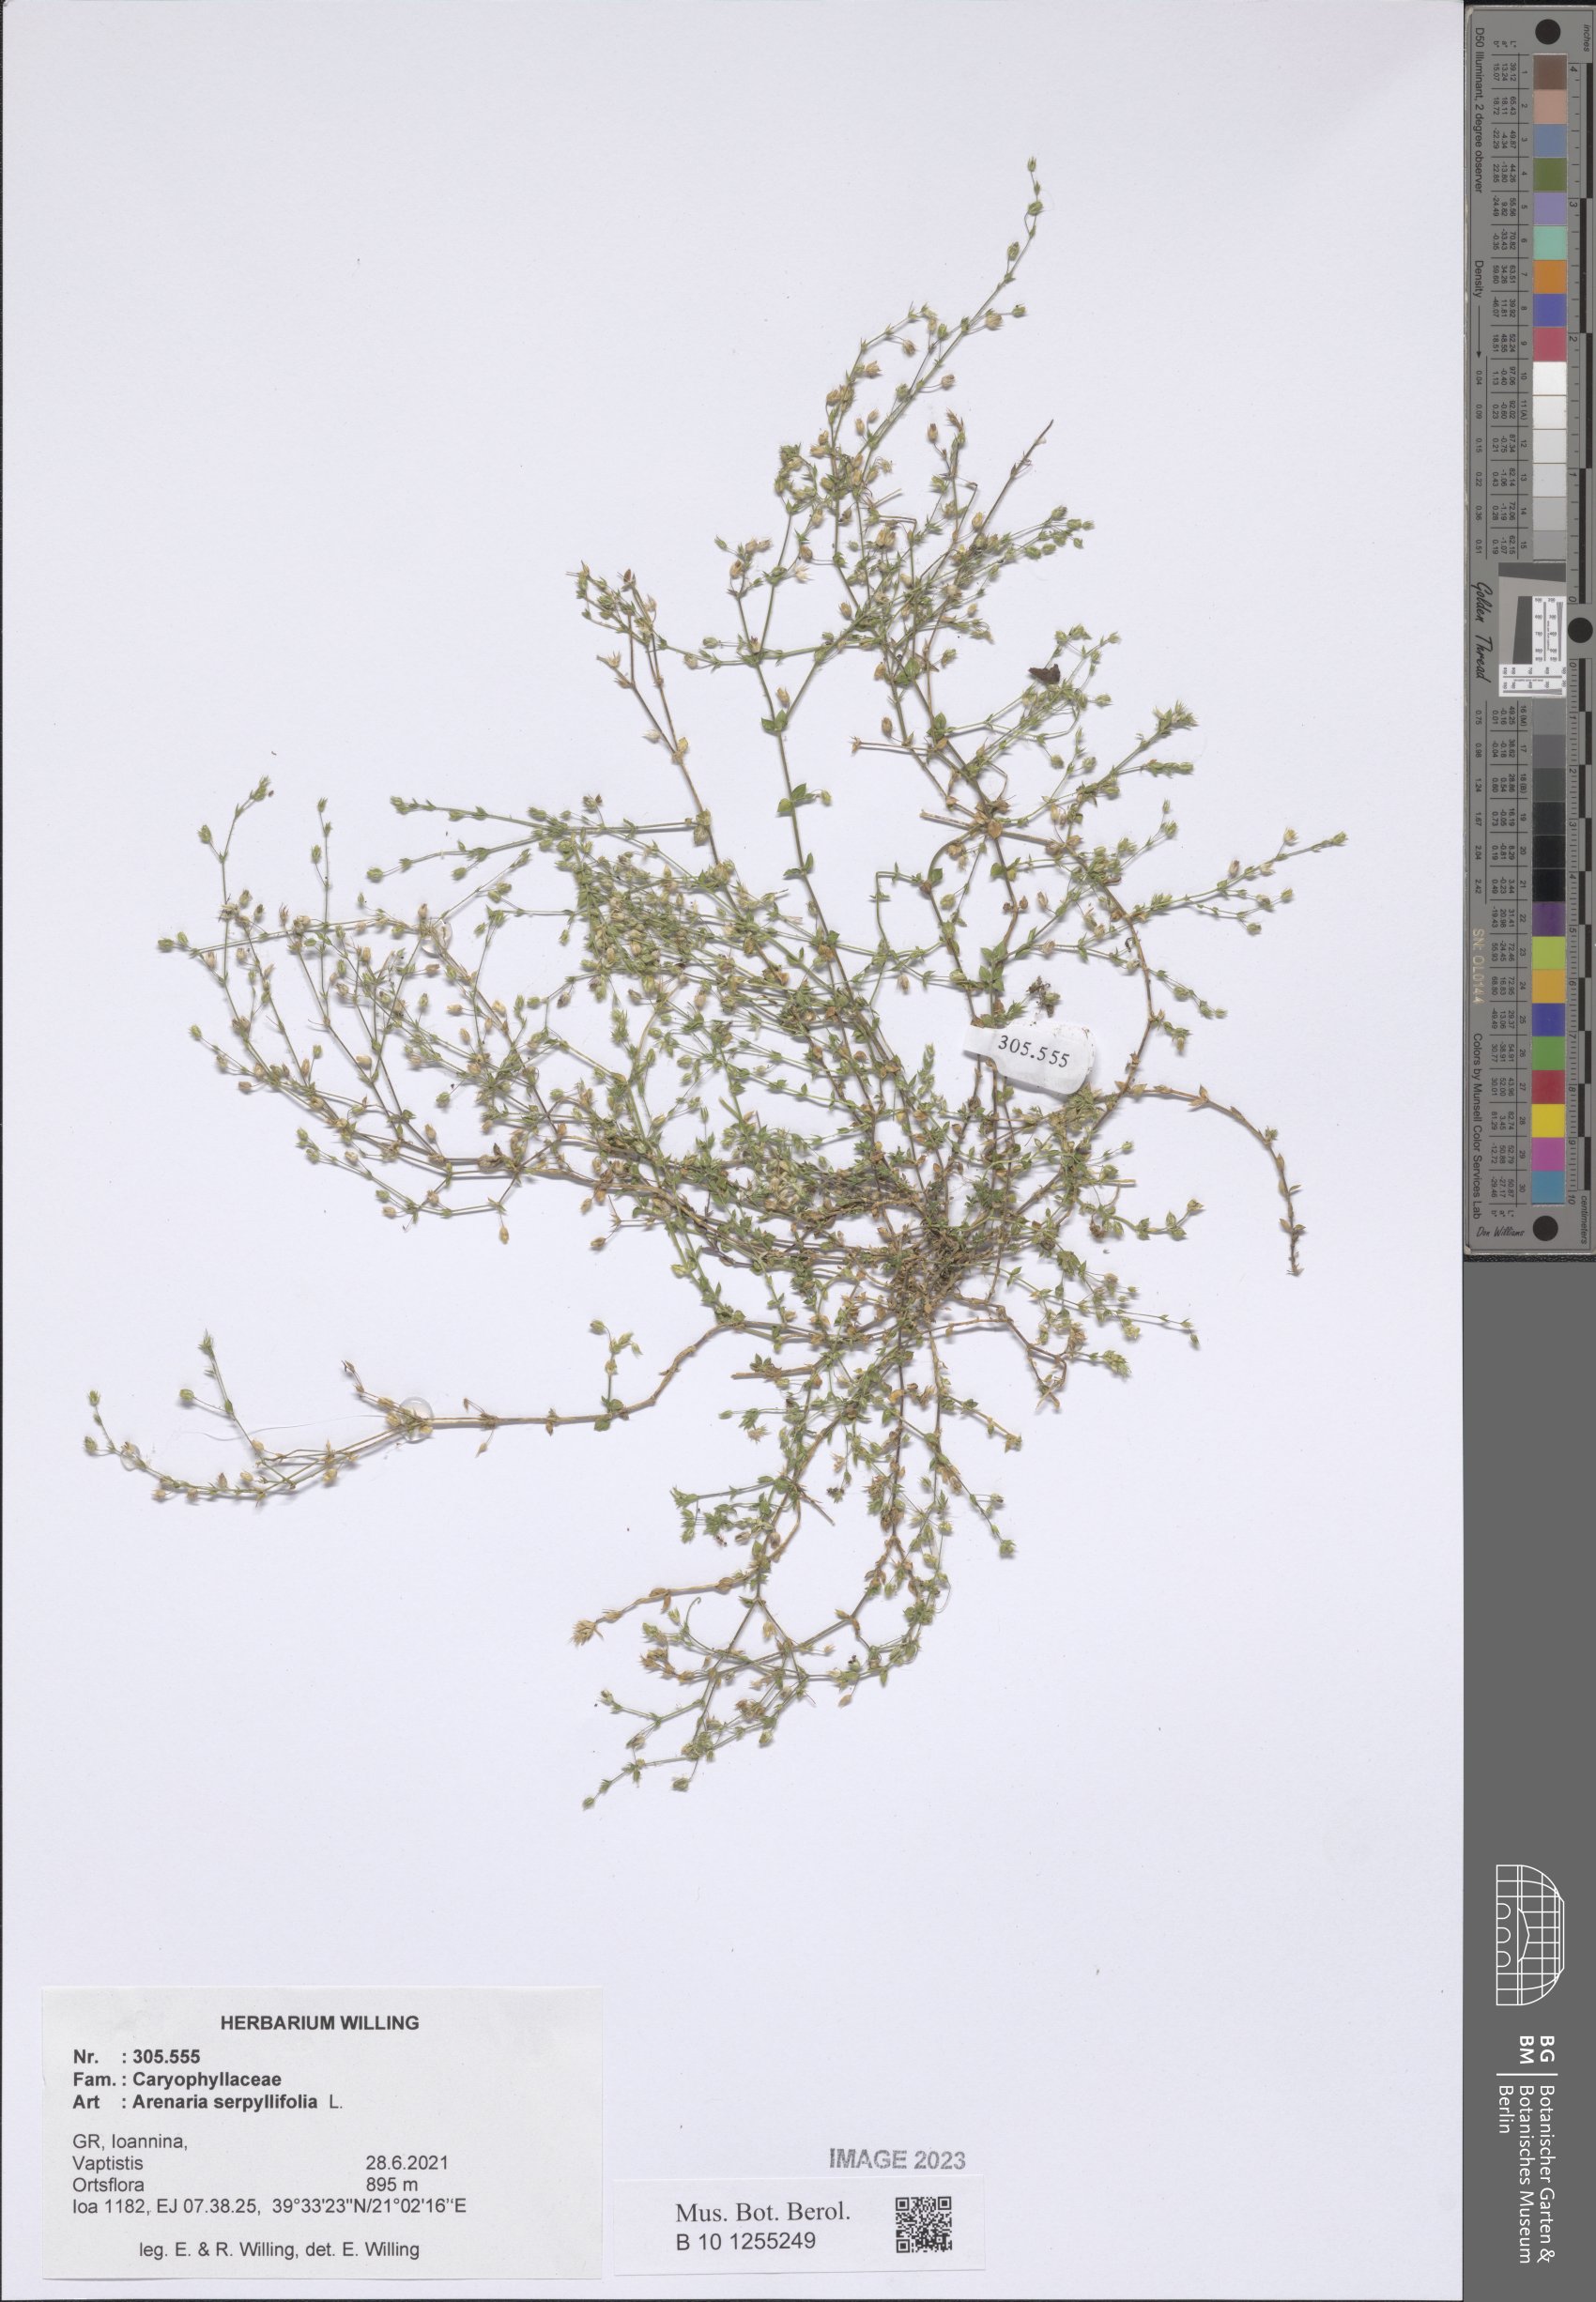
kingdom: Plantae
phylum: Tracheophyta
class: Magnoliopsida
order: Caryophyllales
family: Caryophyllaceae
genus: Arenaria
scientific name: Arenaria serpyllifolia
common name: Thyme-leaved sandwort
